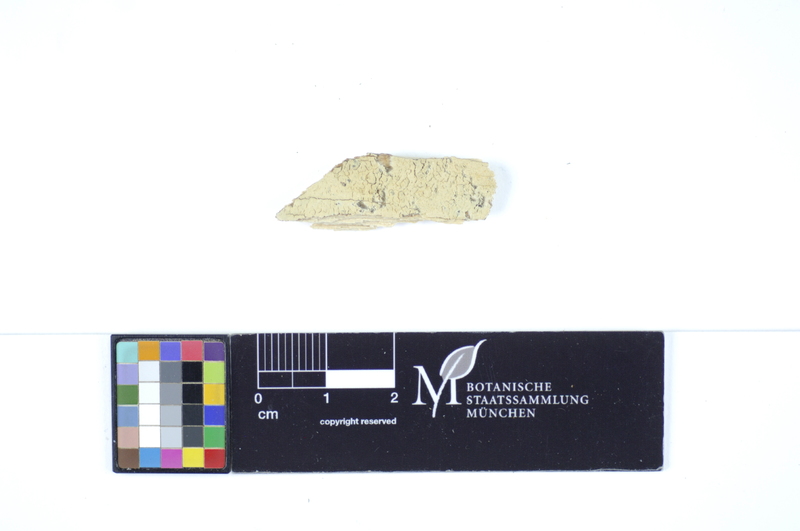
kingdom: Fungi
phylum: Basidiomycota
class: Agaricomycetes
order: Polyporales
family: Hyphodermataceae
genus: Hyphoderma
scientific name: Hyphoderma setigerum
